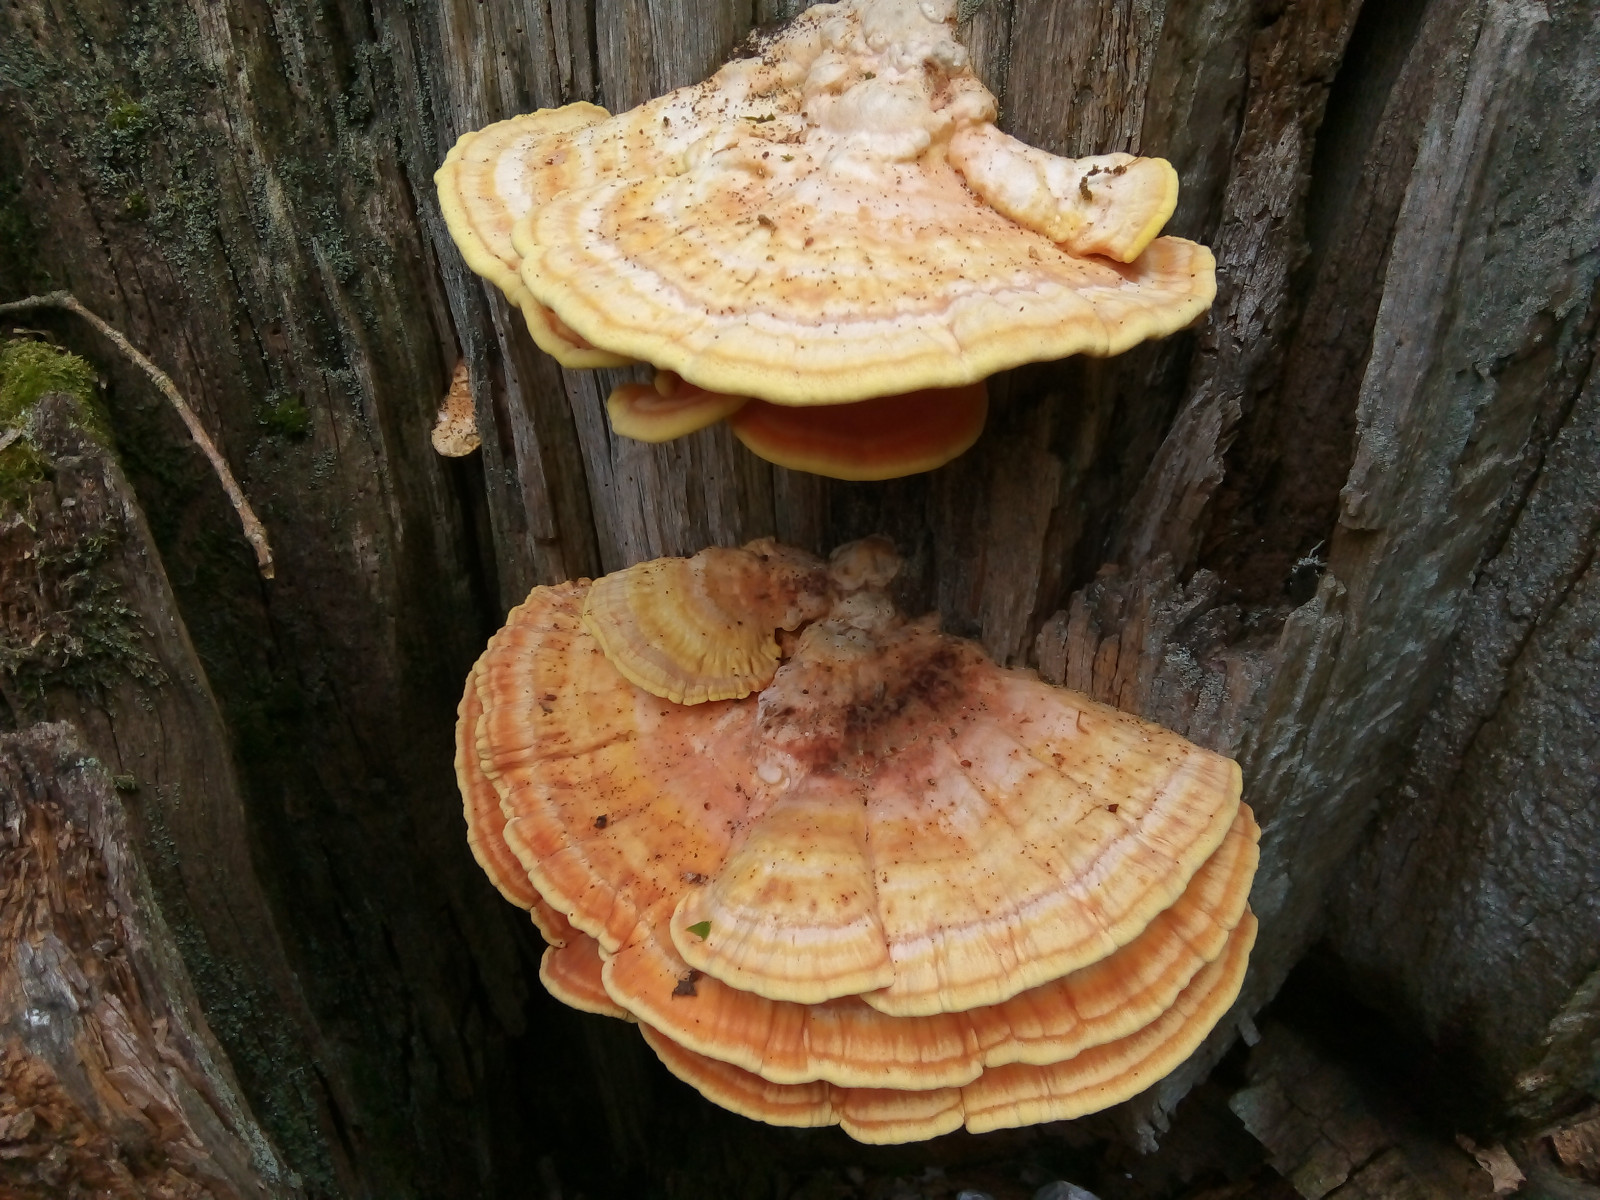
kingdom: Fungi
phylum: Basidiomycota
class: Agaricomycetes
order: Polyporales
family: Laetiporaceae
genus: Laetiporus
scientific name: Laetiporus sulphureus
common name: svovlporesvamp
